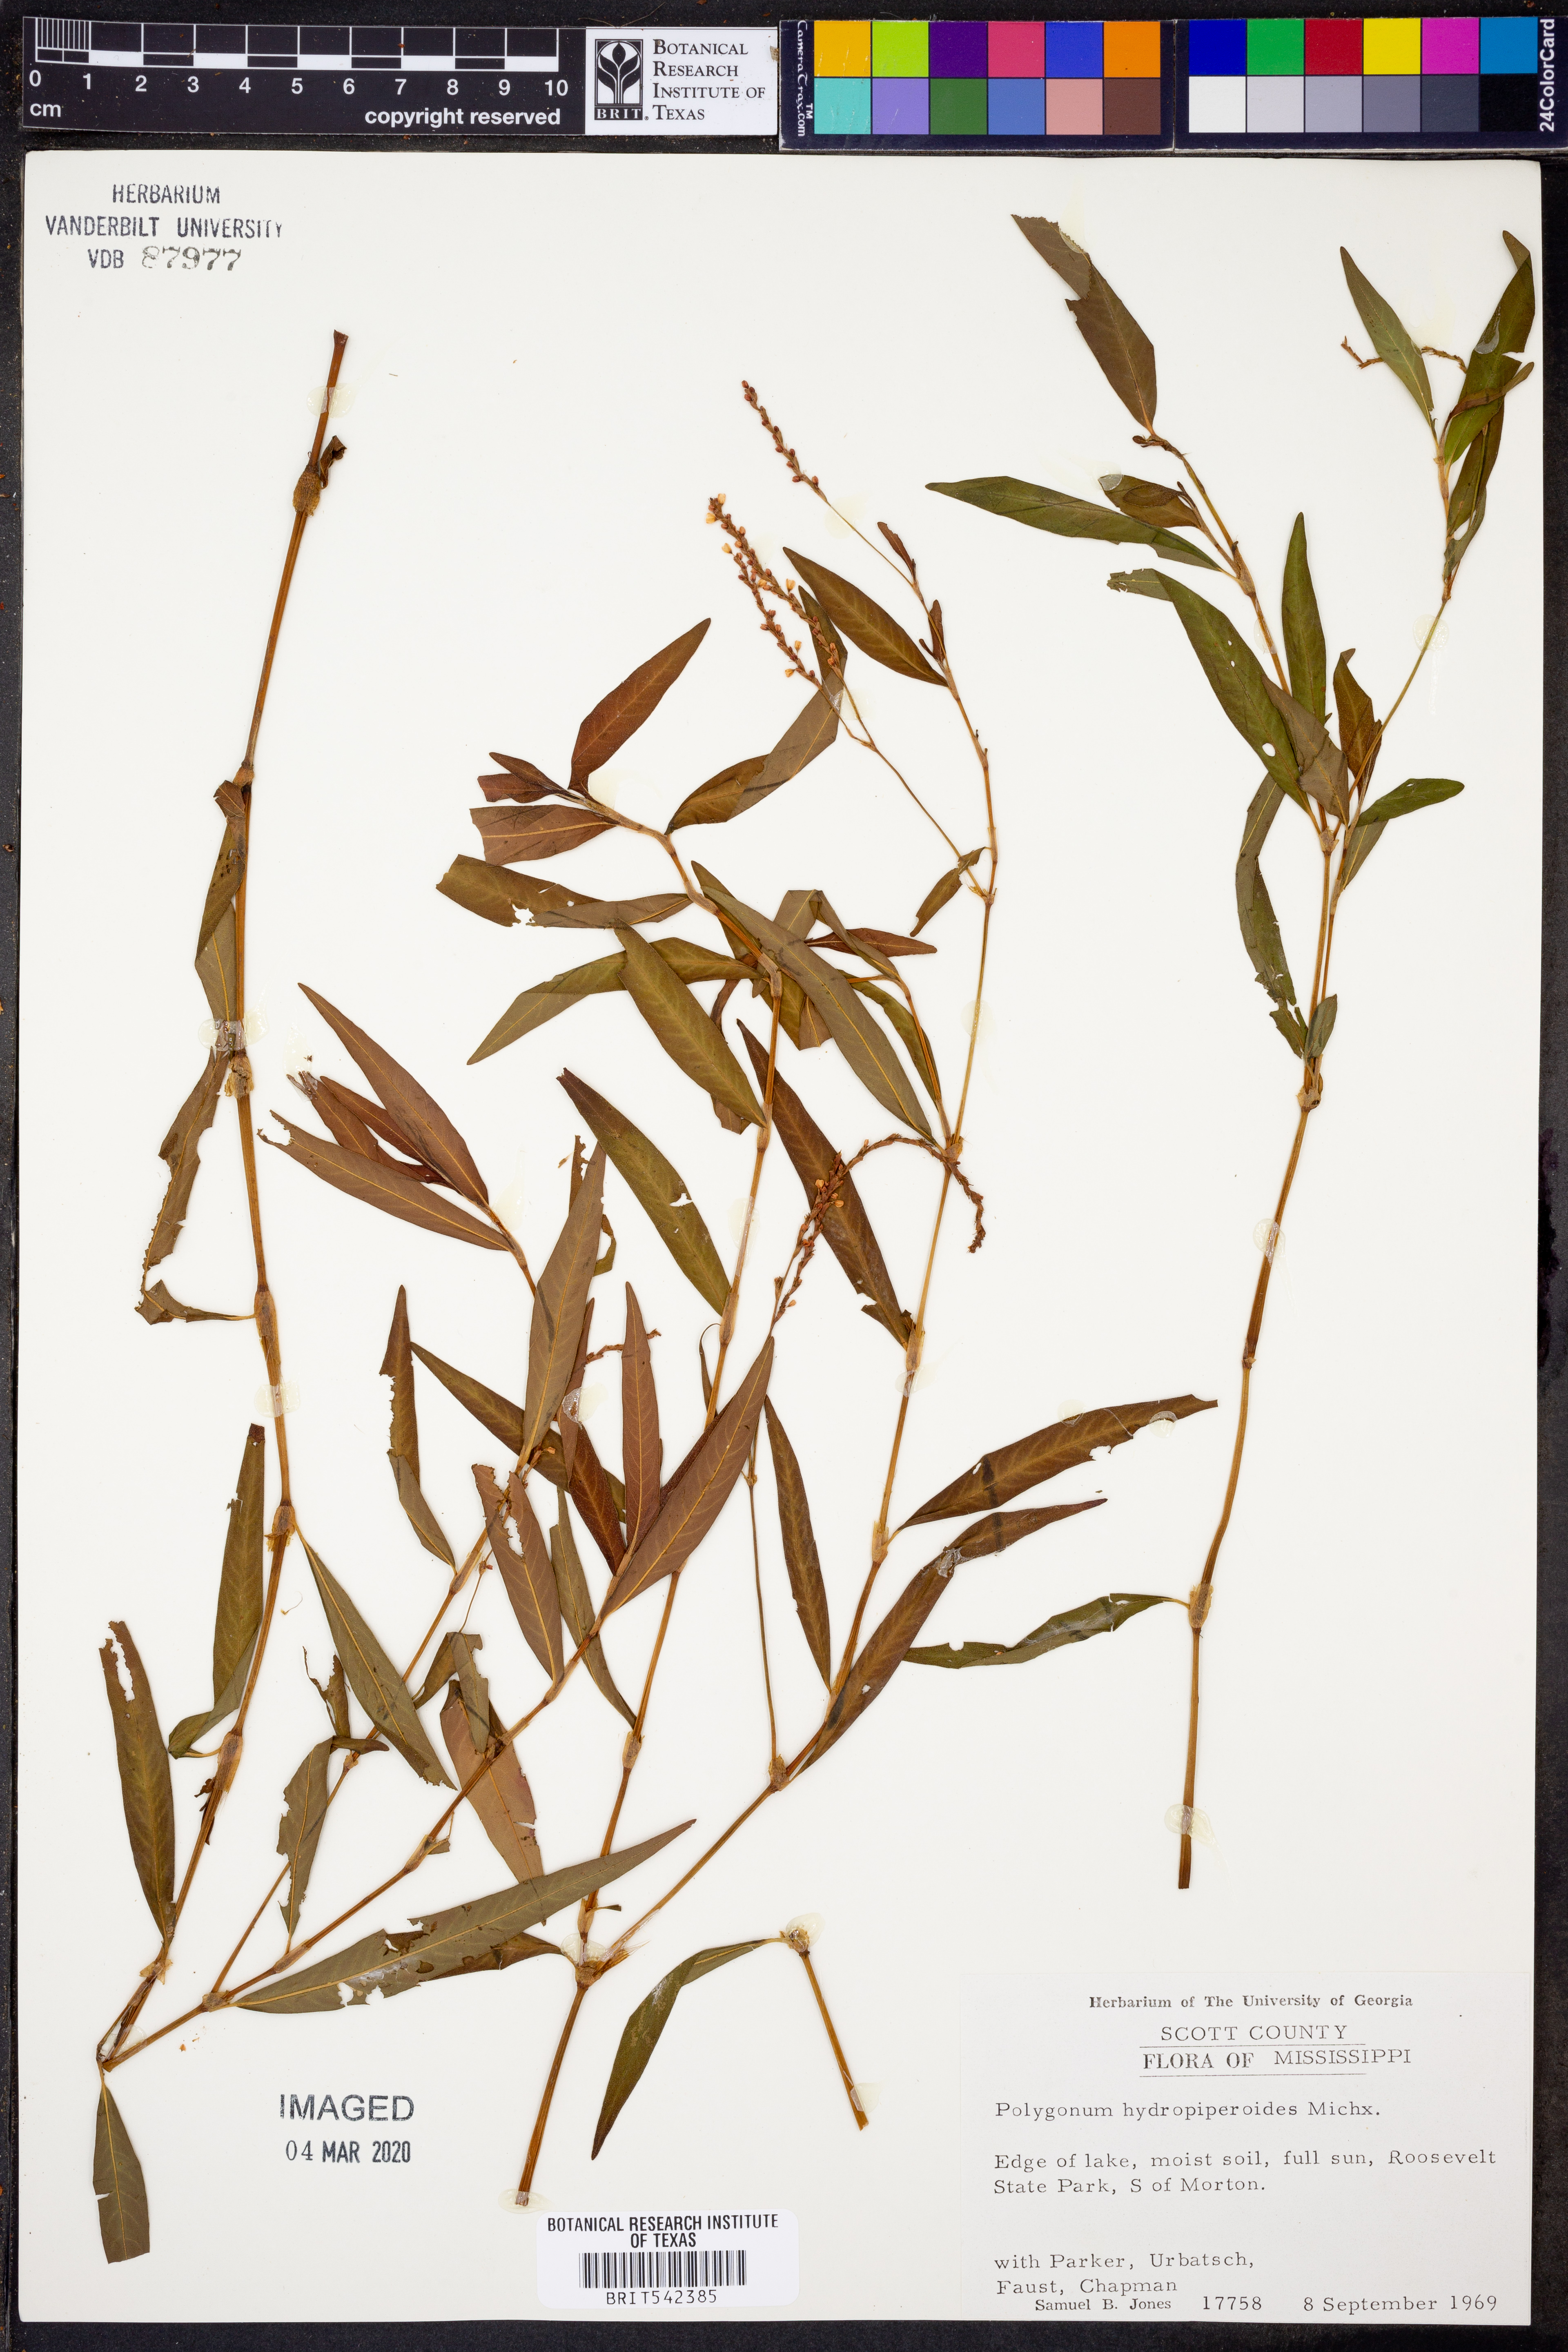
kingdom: Plantae
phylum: Tracheophyta
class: Magnoliopsida
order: Caryophyllales
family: Polygonaceae
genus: Persicaria
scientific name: Persicaria hydropiperoides
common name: Swamp smartweed
